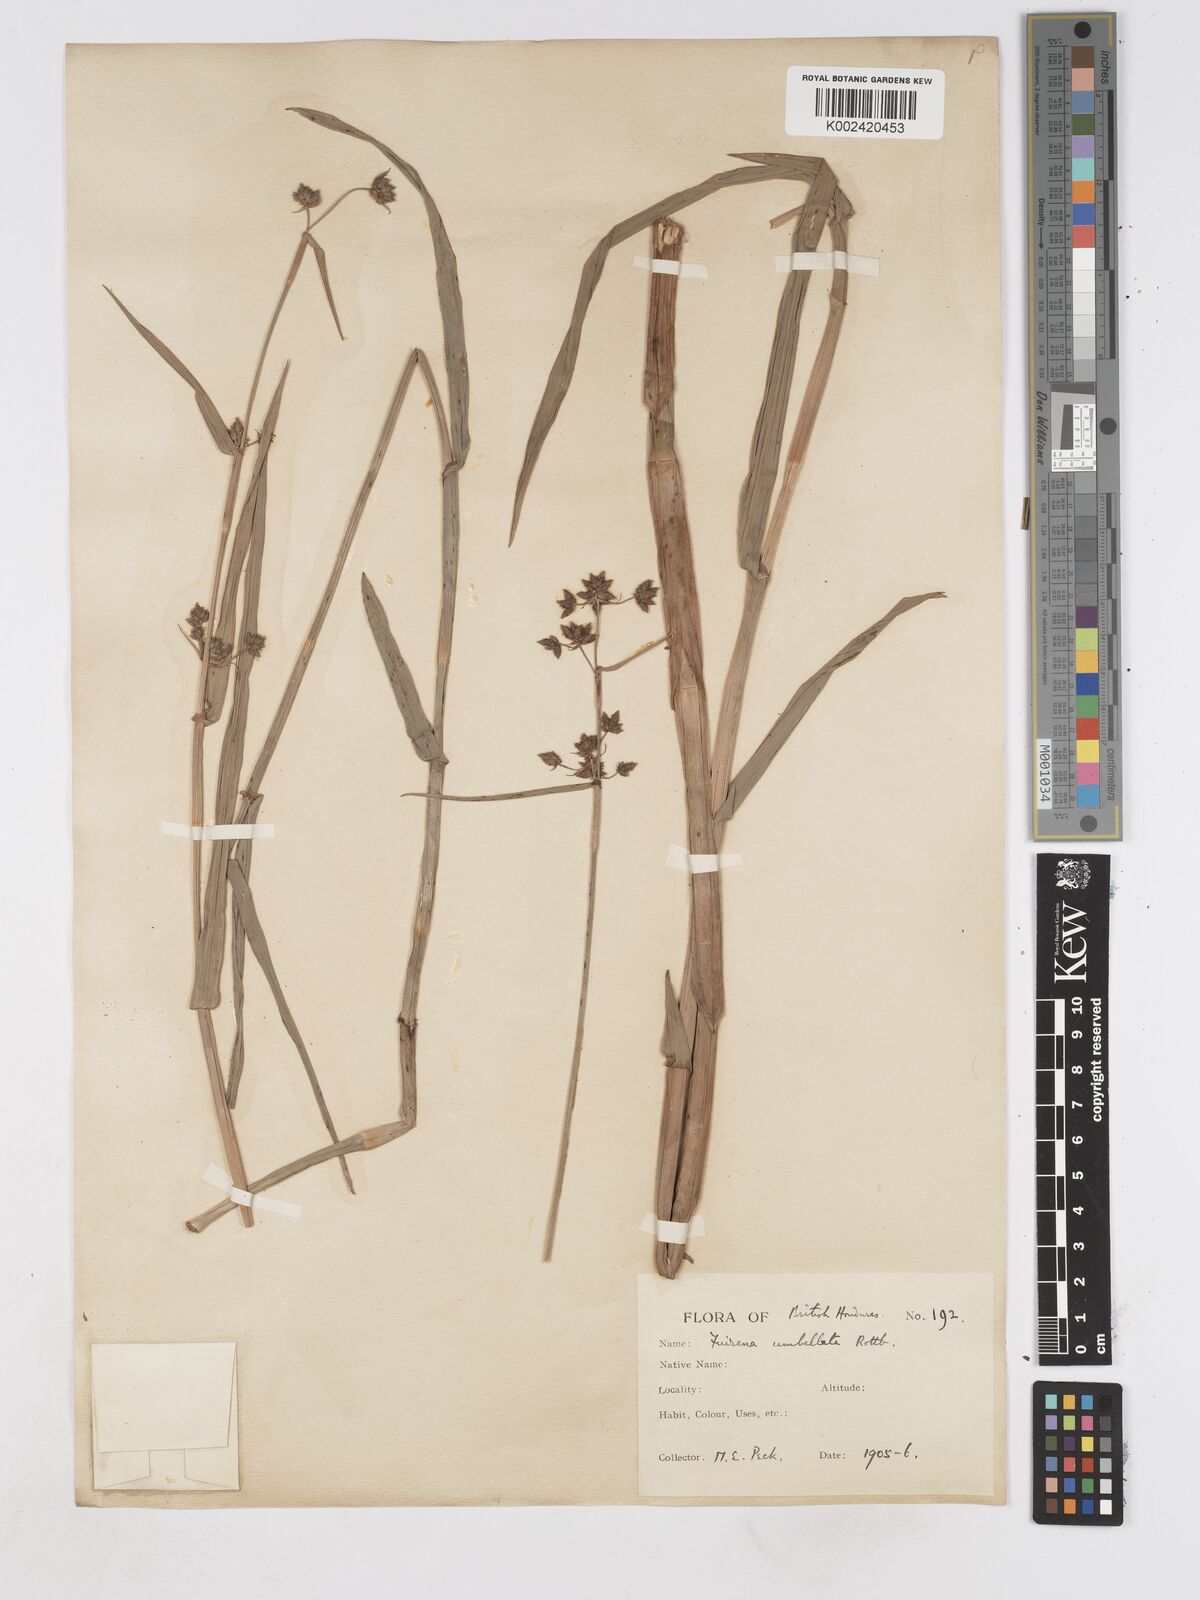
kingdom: Plantae
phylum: Tracheophyta
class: Liliopsida
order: Poales
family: Cyperaceae
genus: Fuirena
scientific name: Fuirena umbellata
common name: Yefen
